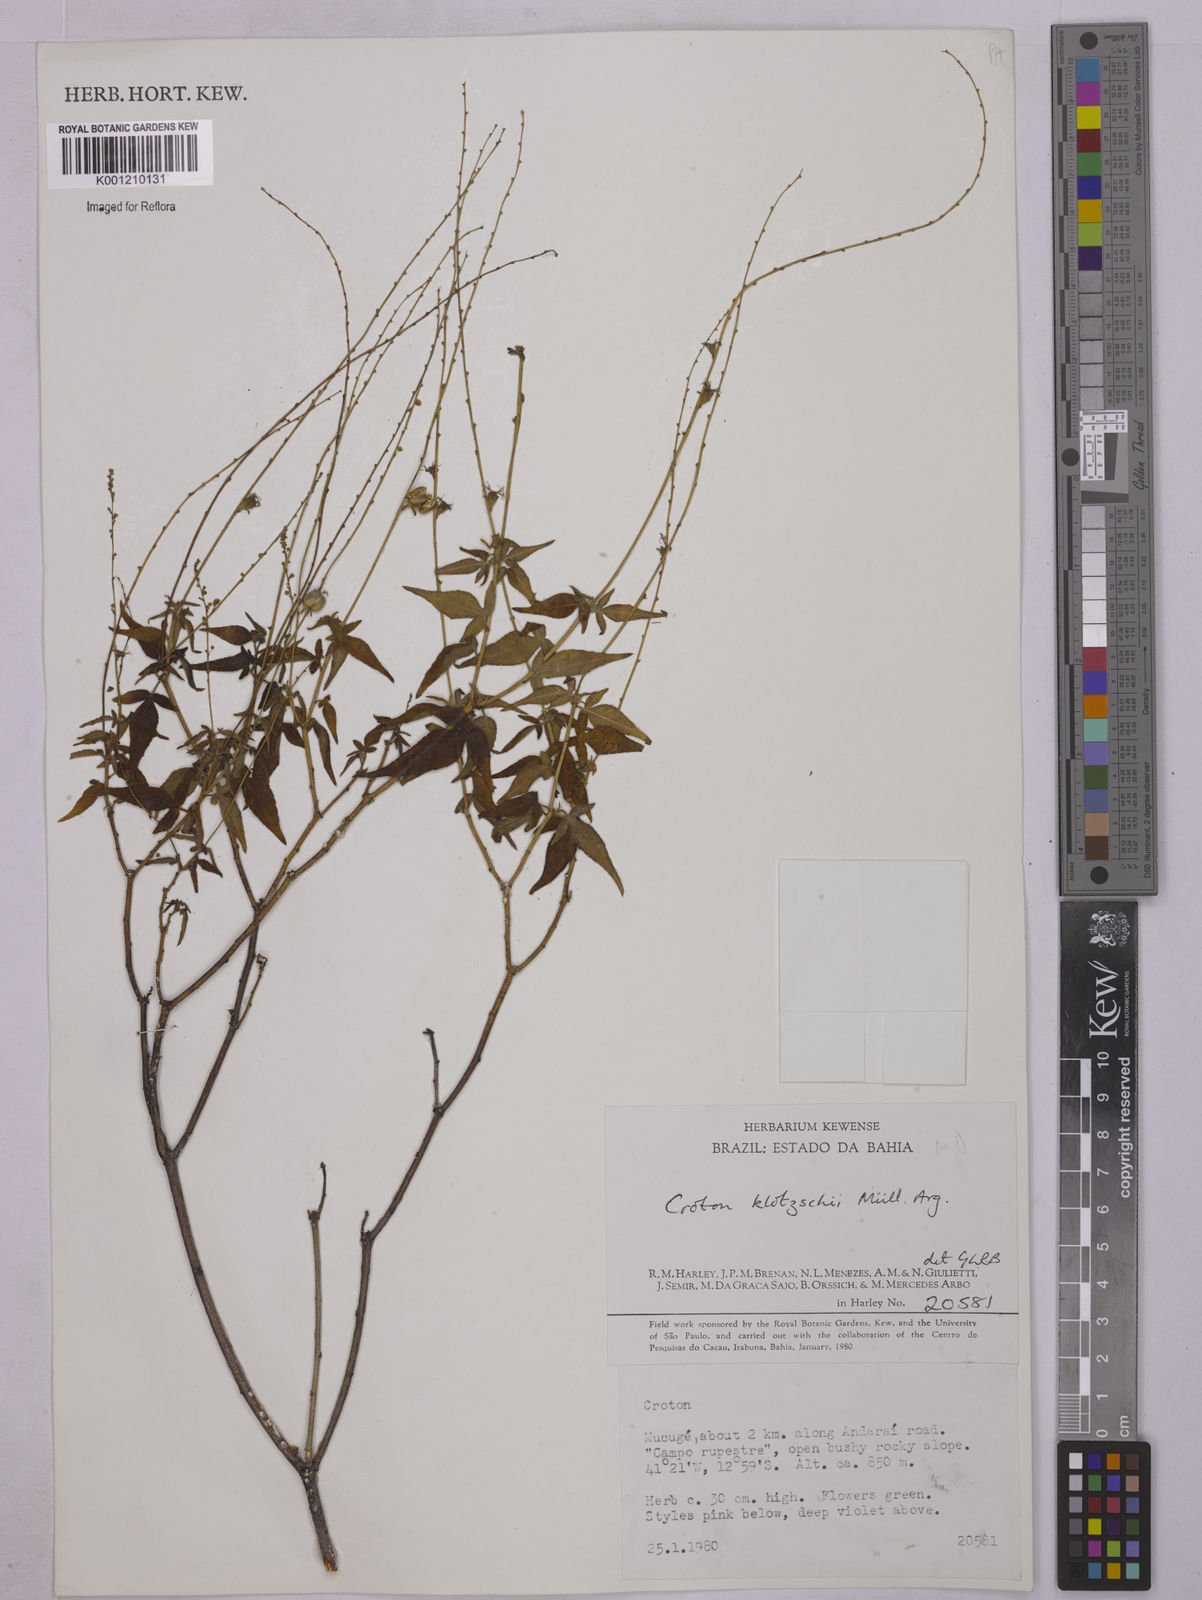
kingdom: Plantae
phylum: Tracheophyta
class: Magnoliopsida
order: Malpighiales
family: Euphorbiaceae
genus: Astraea
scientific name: Astraea macroura
